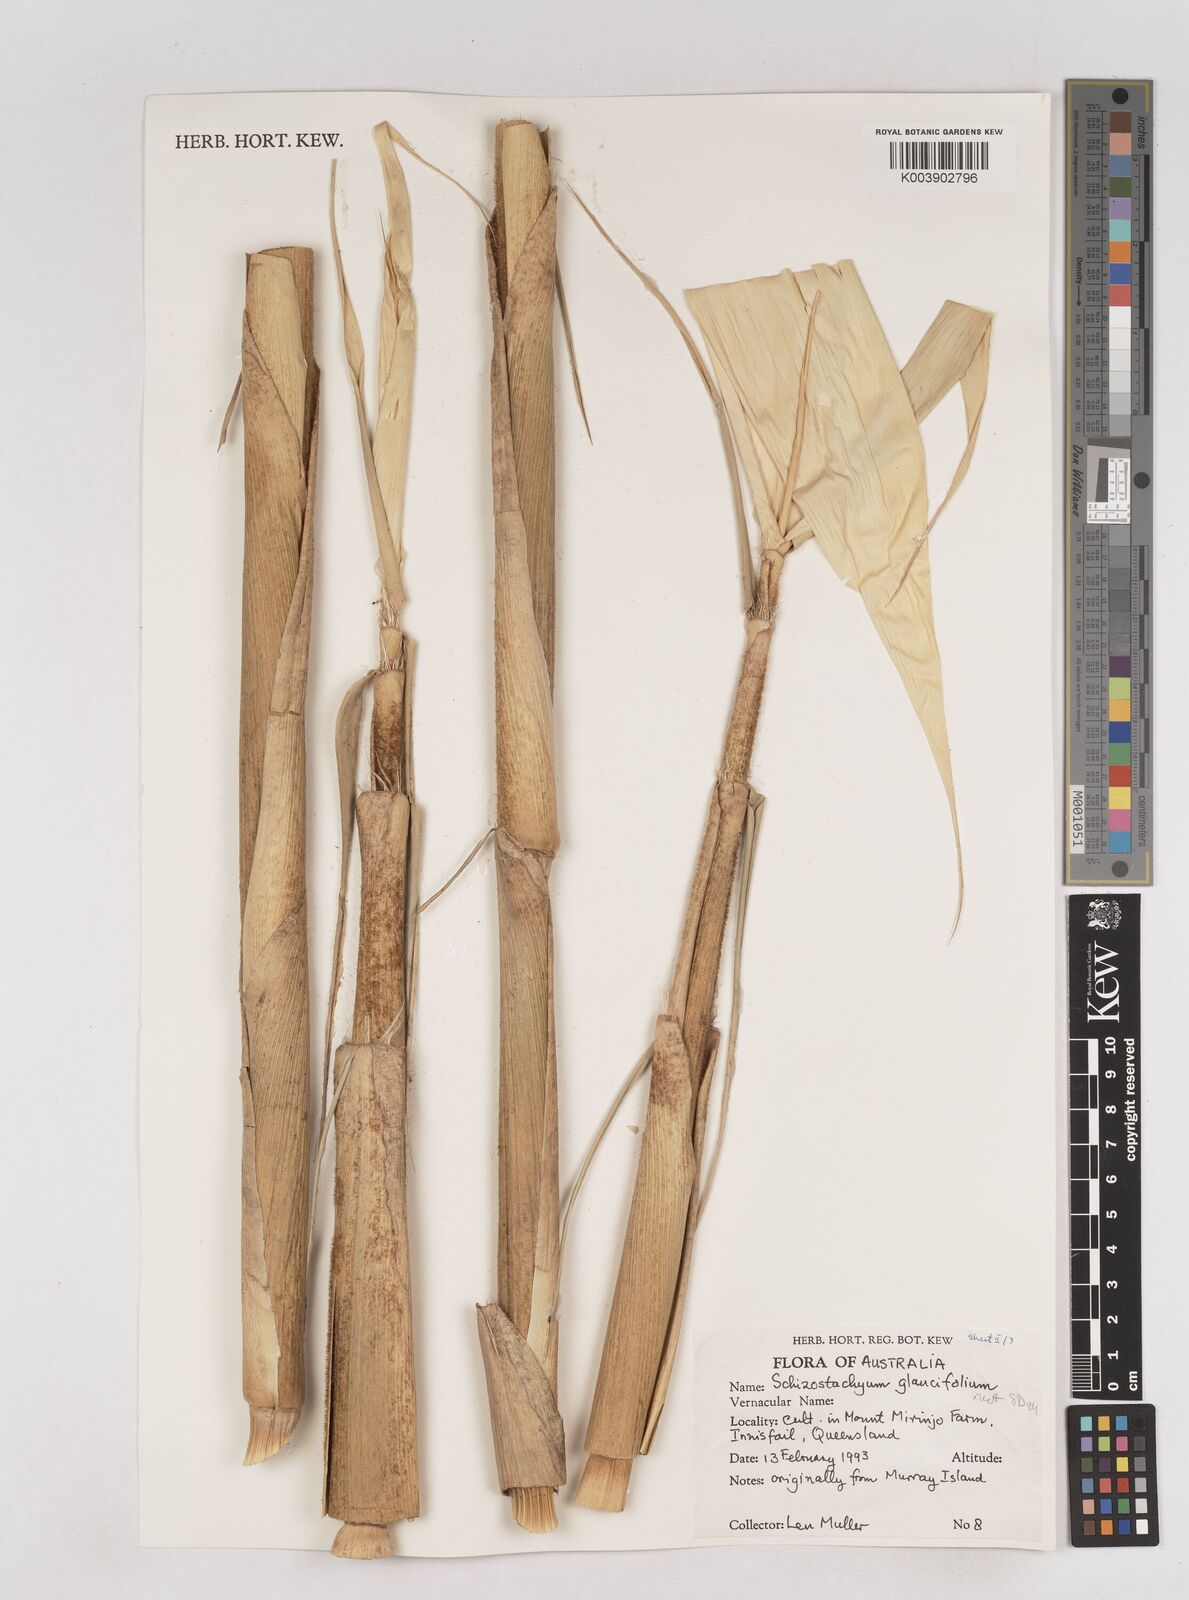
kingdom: Plantae
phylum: Tracheophyta
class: Liliopsida
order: Poales
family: Poaceae
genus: Schizostachyum
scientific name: Schizostachyum glaucifolium
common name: Polynesian 'ohe
